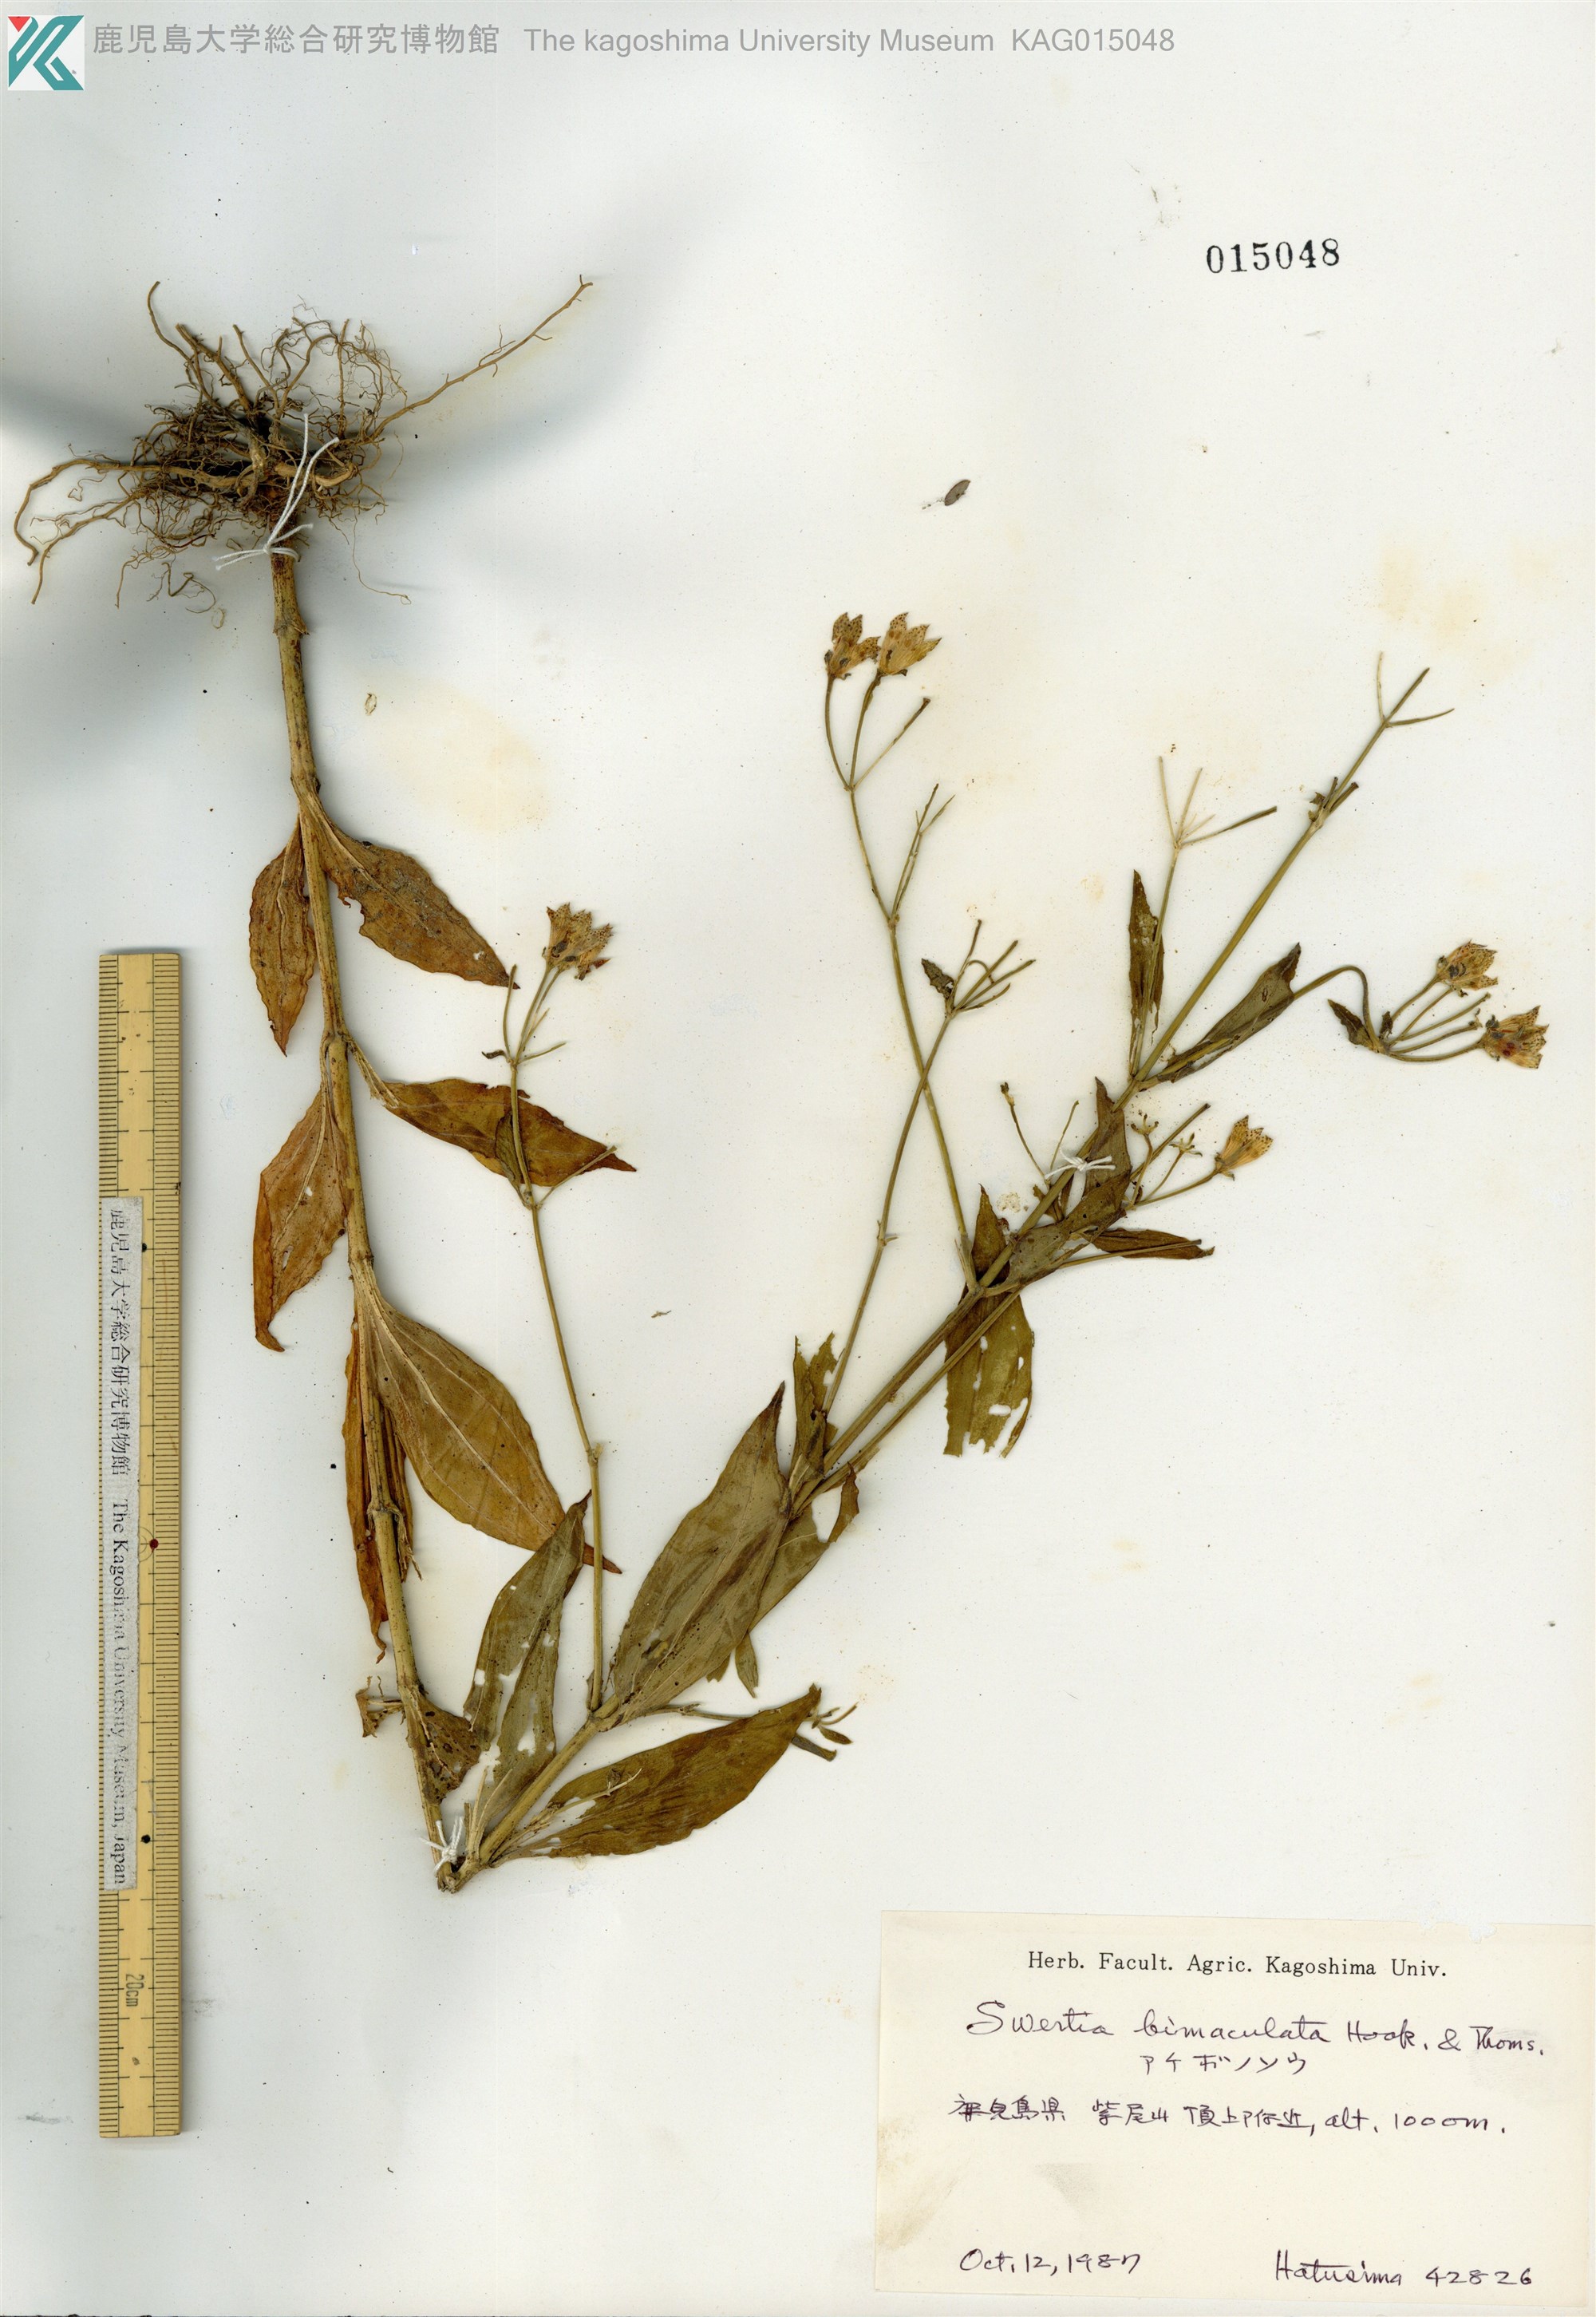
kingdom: Plantae
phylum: Tracheophyta
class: Magnoliopsida
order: Gentianales
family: Gentianaceae
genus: Swertia
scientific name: Swertia bimaculata
